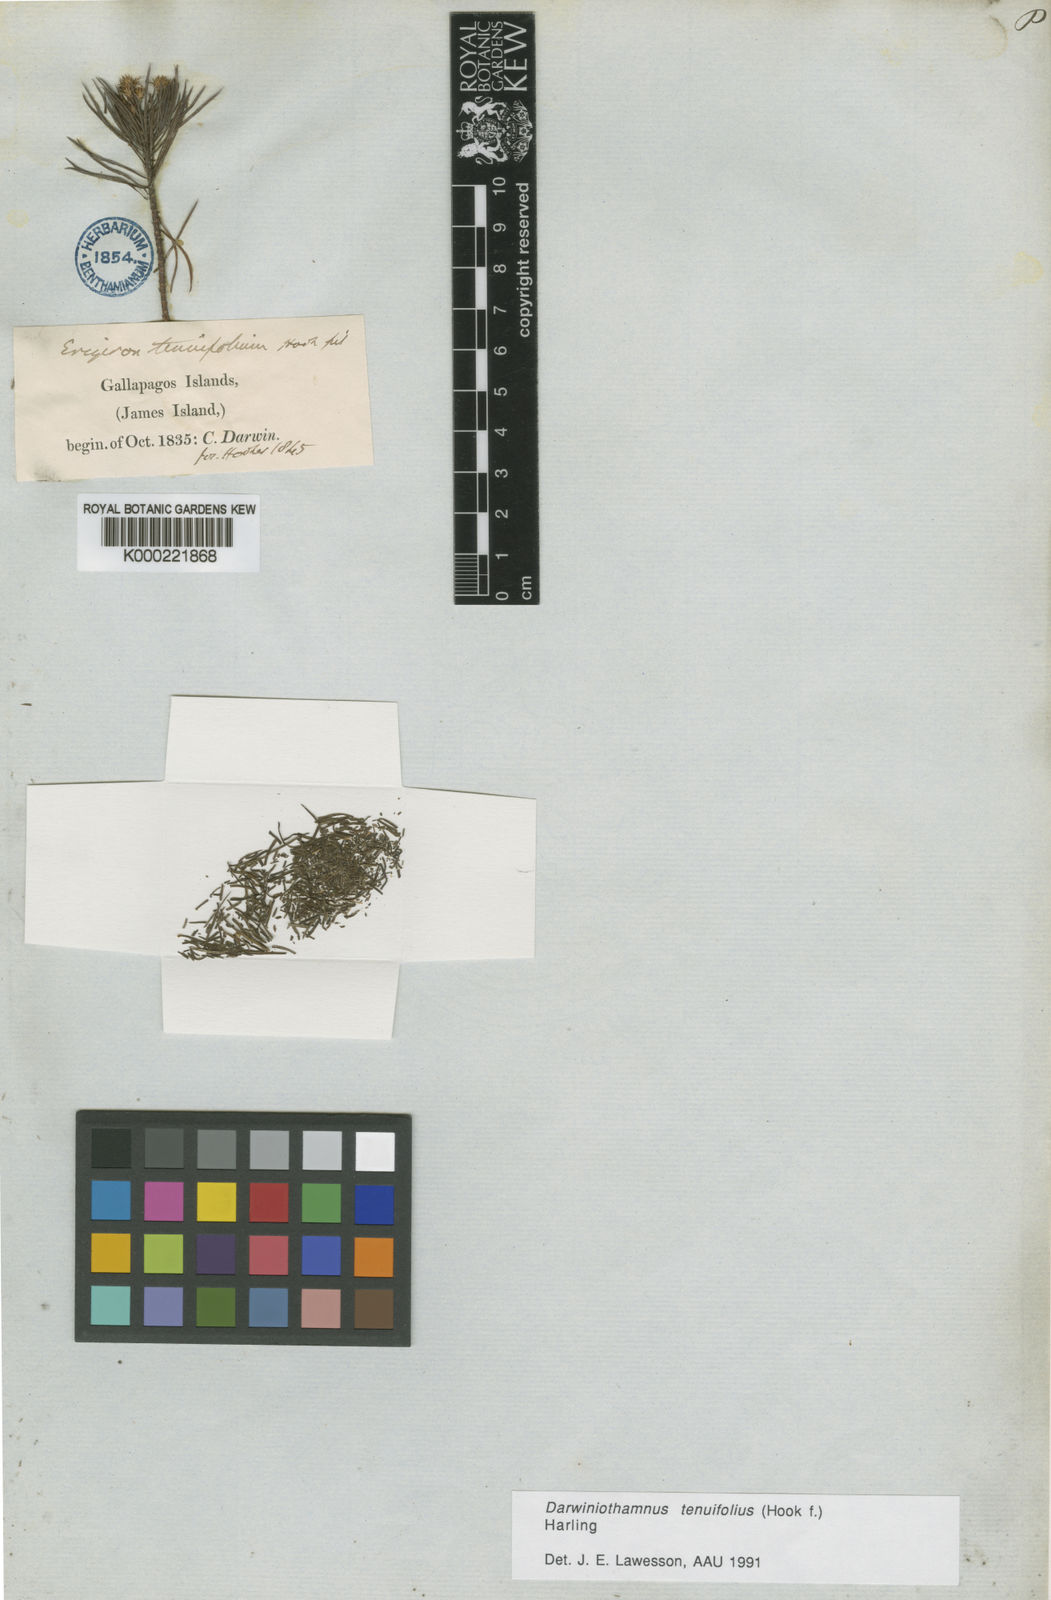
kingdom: Plantae
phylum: Tracheophyta
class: Magnoliopsida
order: Asterales
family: Asteraceae
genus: Erigeron
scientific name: Erigeron tenuifolius
